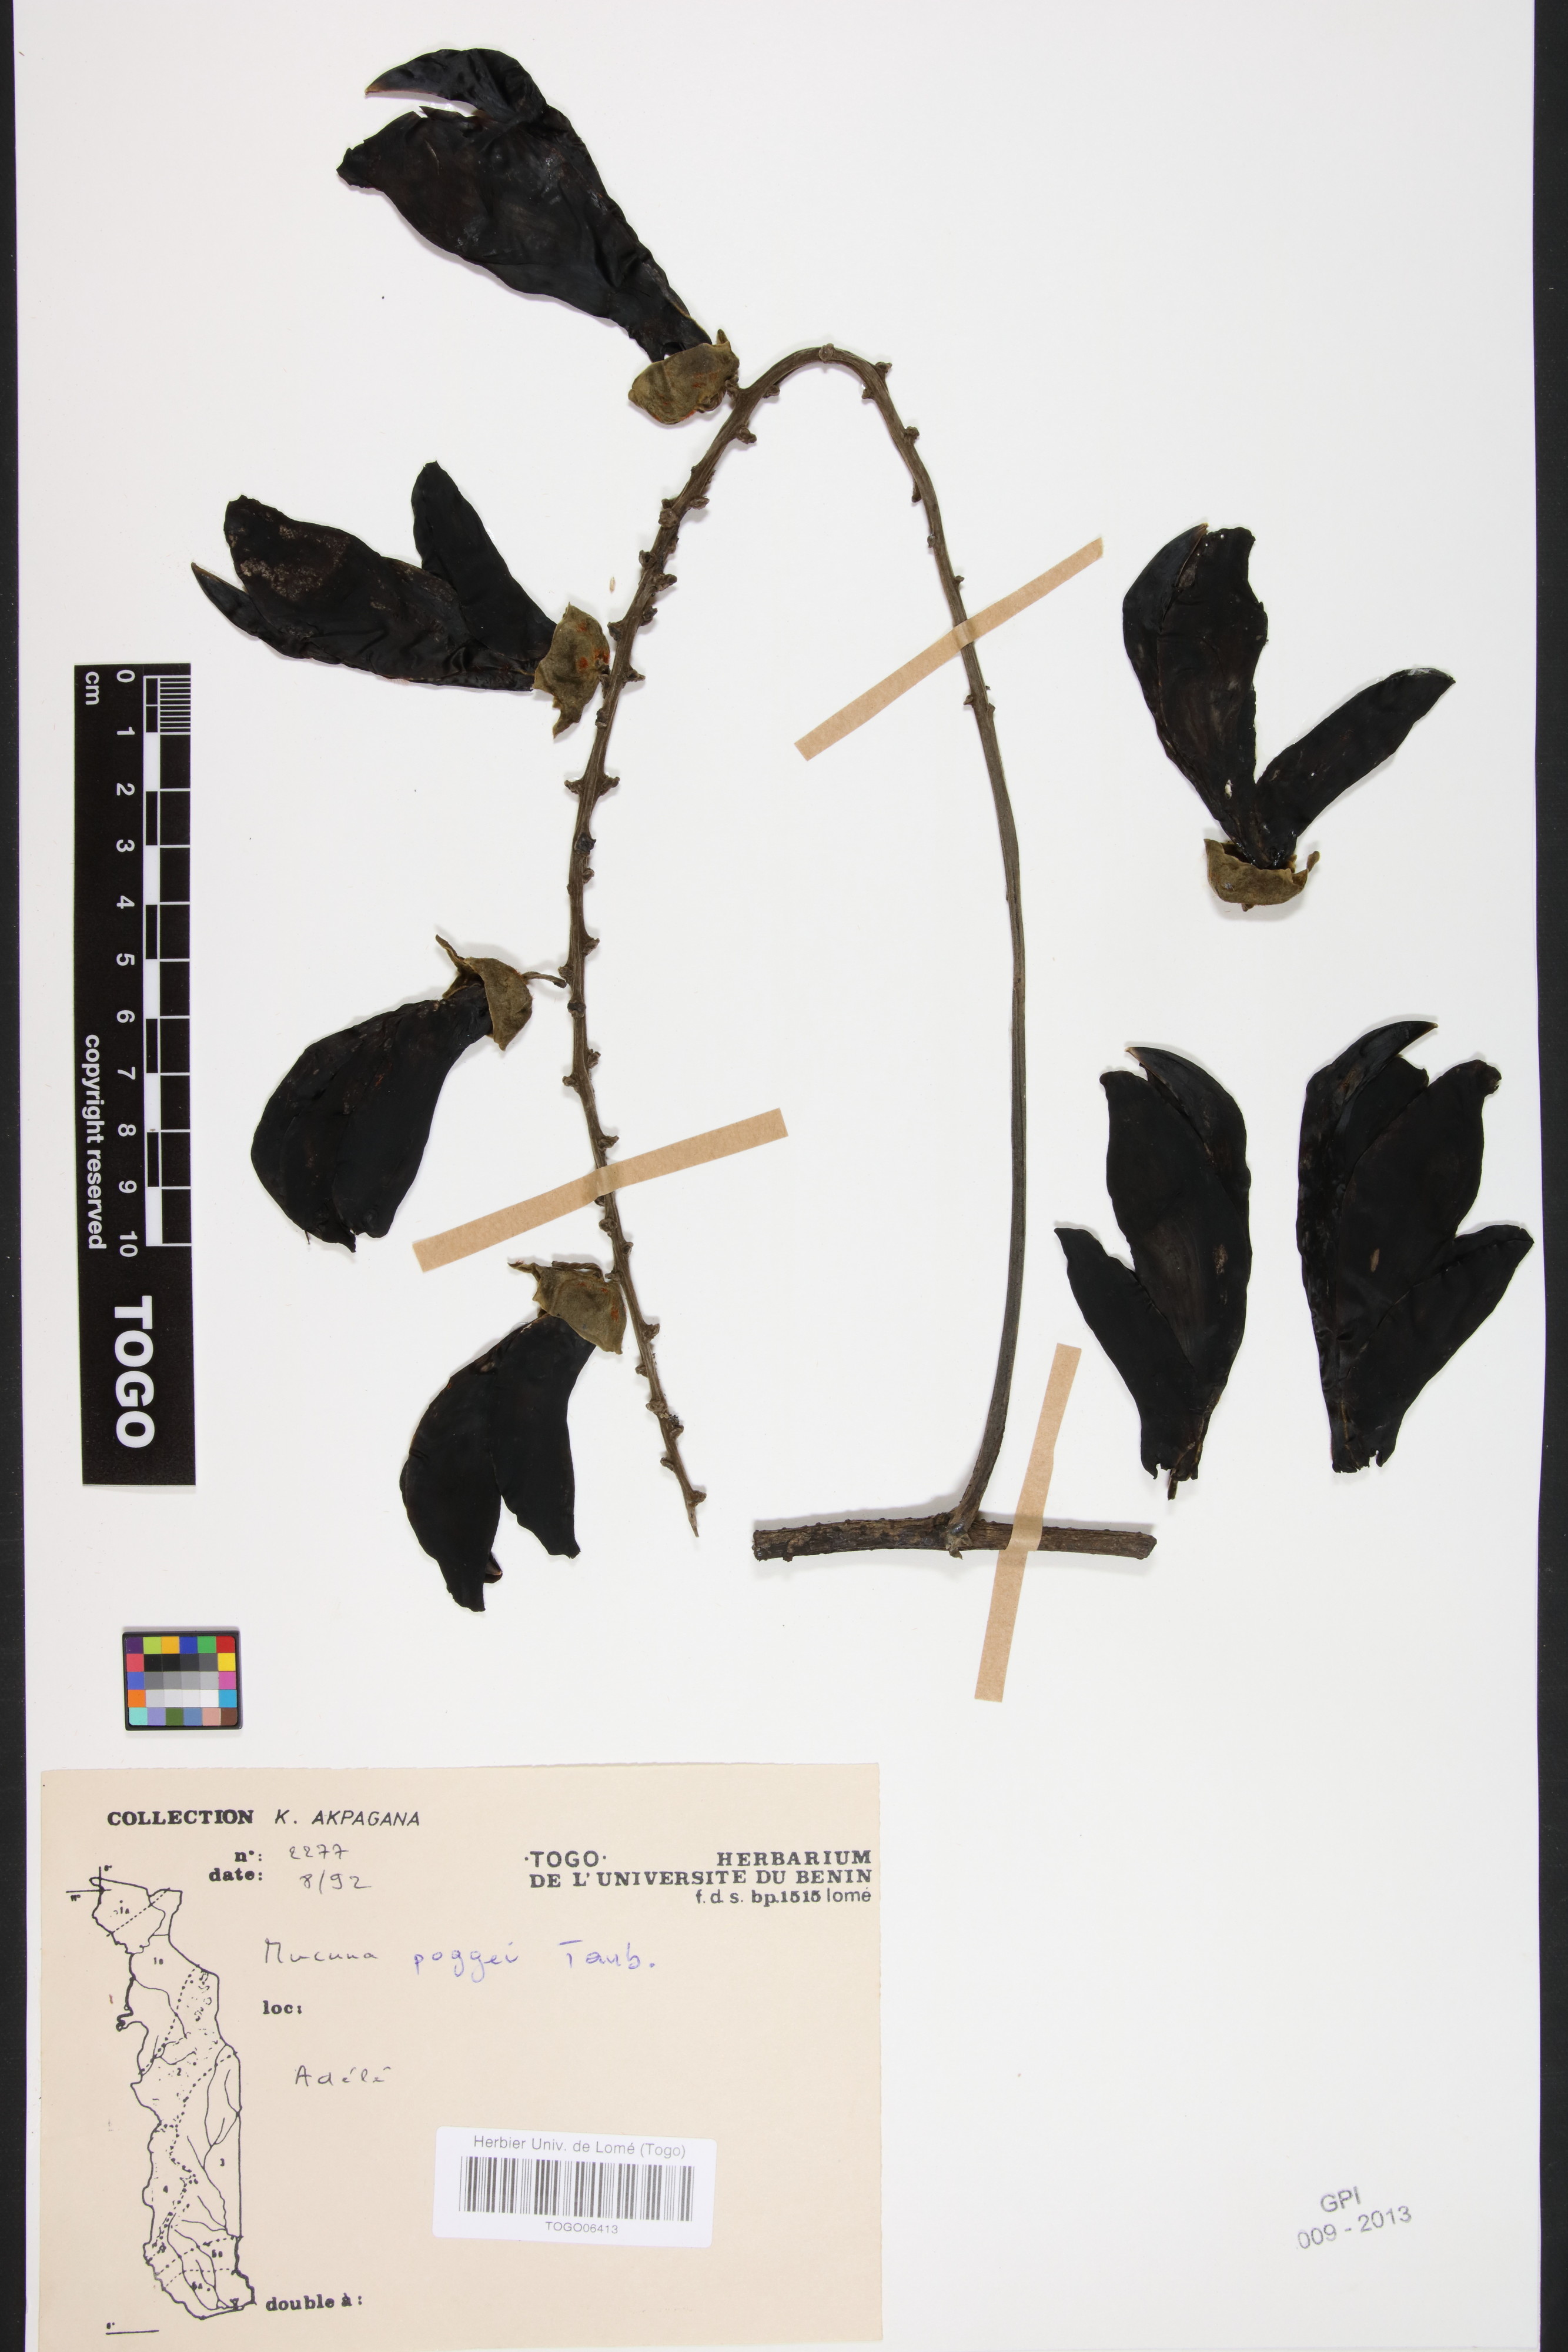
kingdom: Plantae
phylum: Tracheophyta
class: Magnoliopsida
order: Fabales
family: Fabaceae
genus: Mucuna
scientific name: Mucuna poggei
